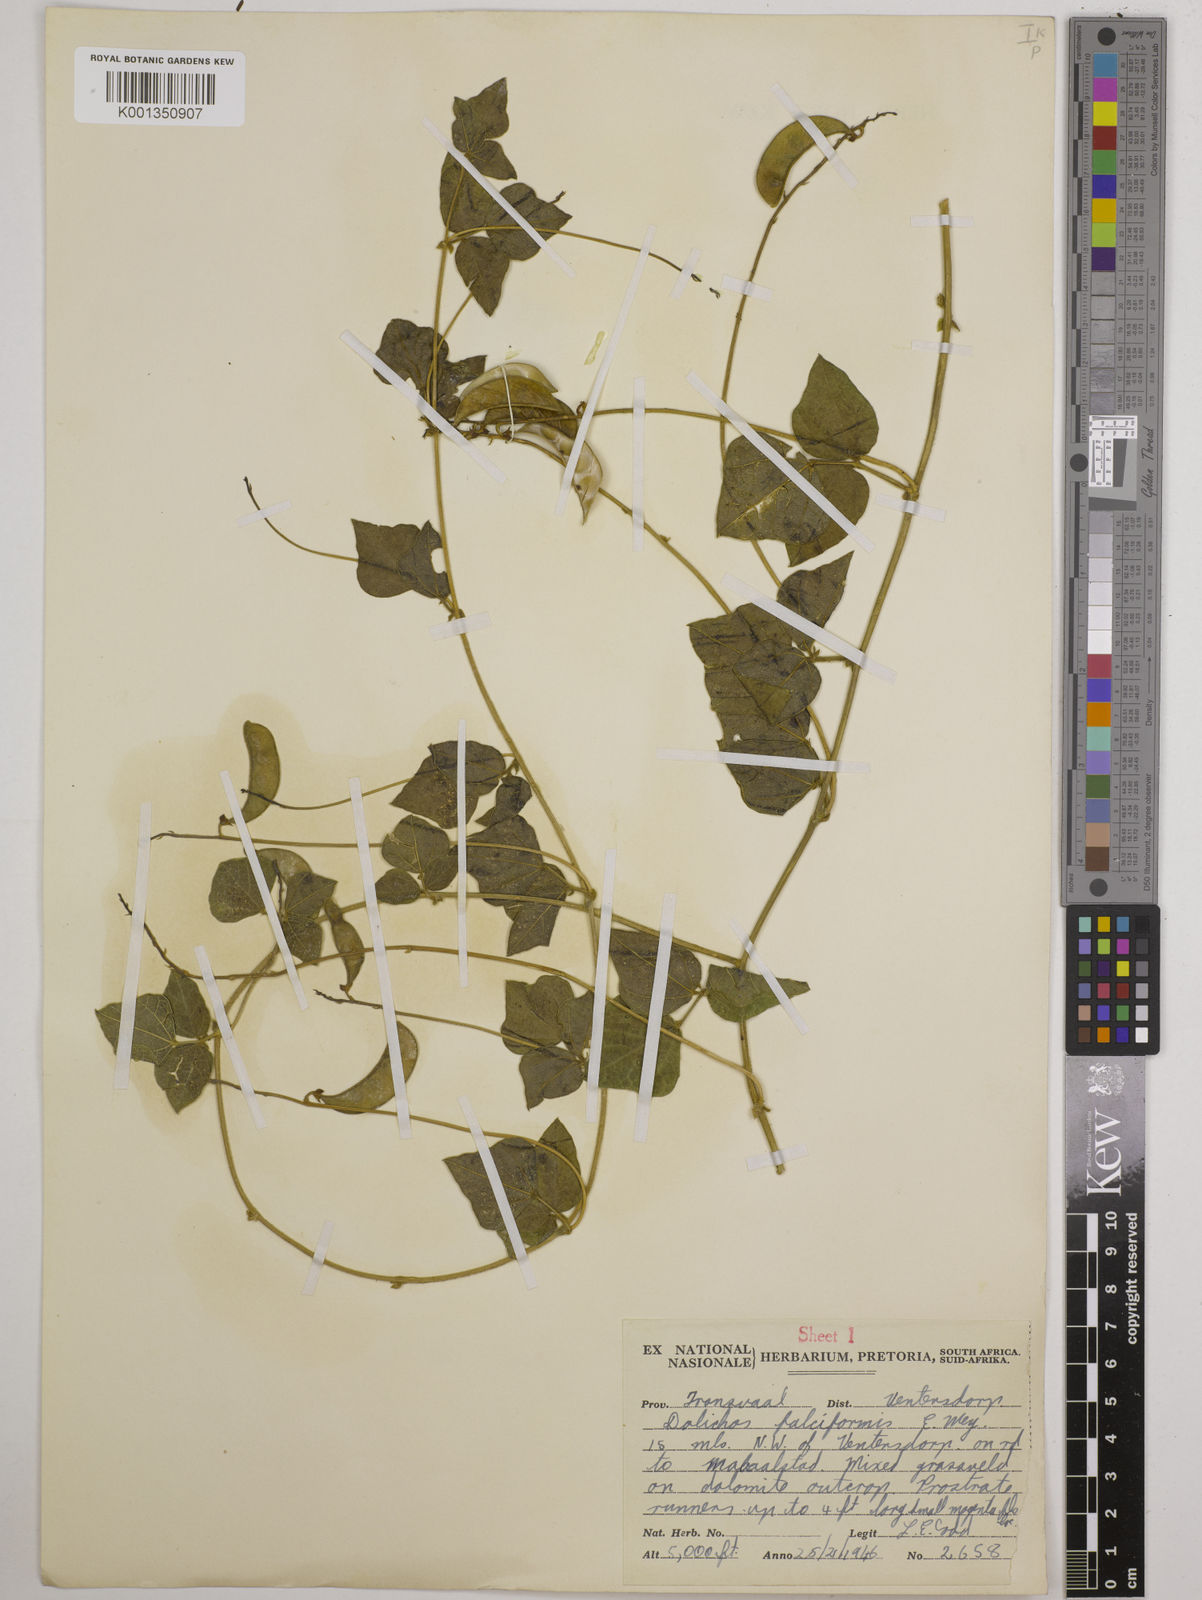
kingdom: Plantae
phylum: Tracheophyta
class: Magnoliopsida
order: Fabales
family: Fabaceae
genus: Dolichos
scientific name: Dolichos falciformis
